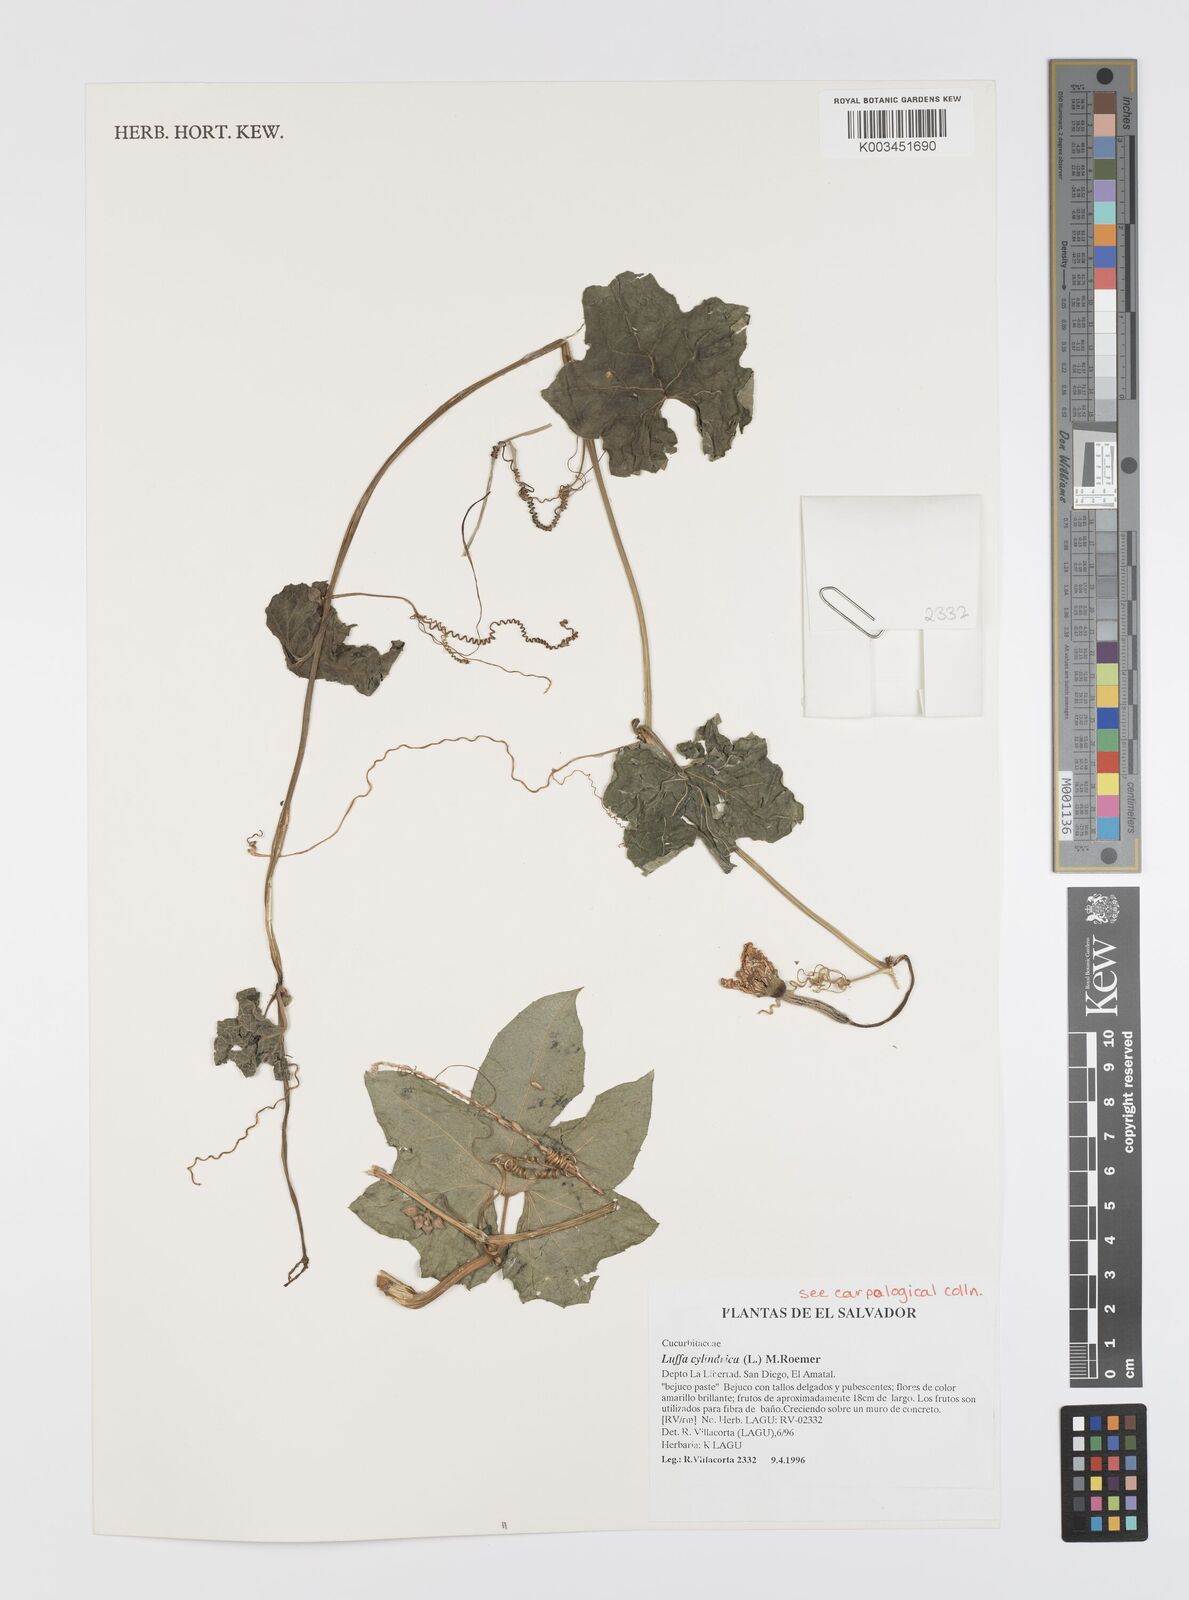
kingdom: Plantae
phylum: Tracheophyta
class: Magnoliopsida
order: Cucurbitales
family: Cucurbitaceae
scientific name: Cucurbitaceae
